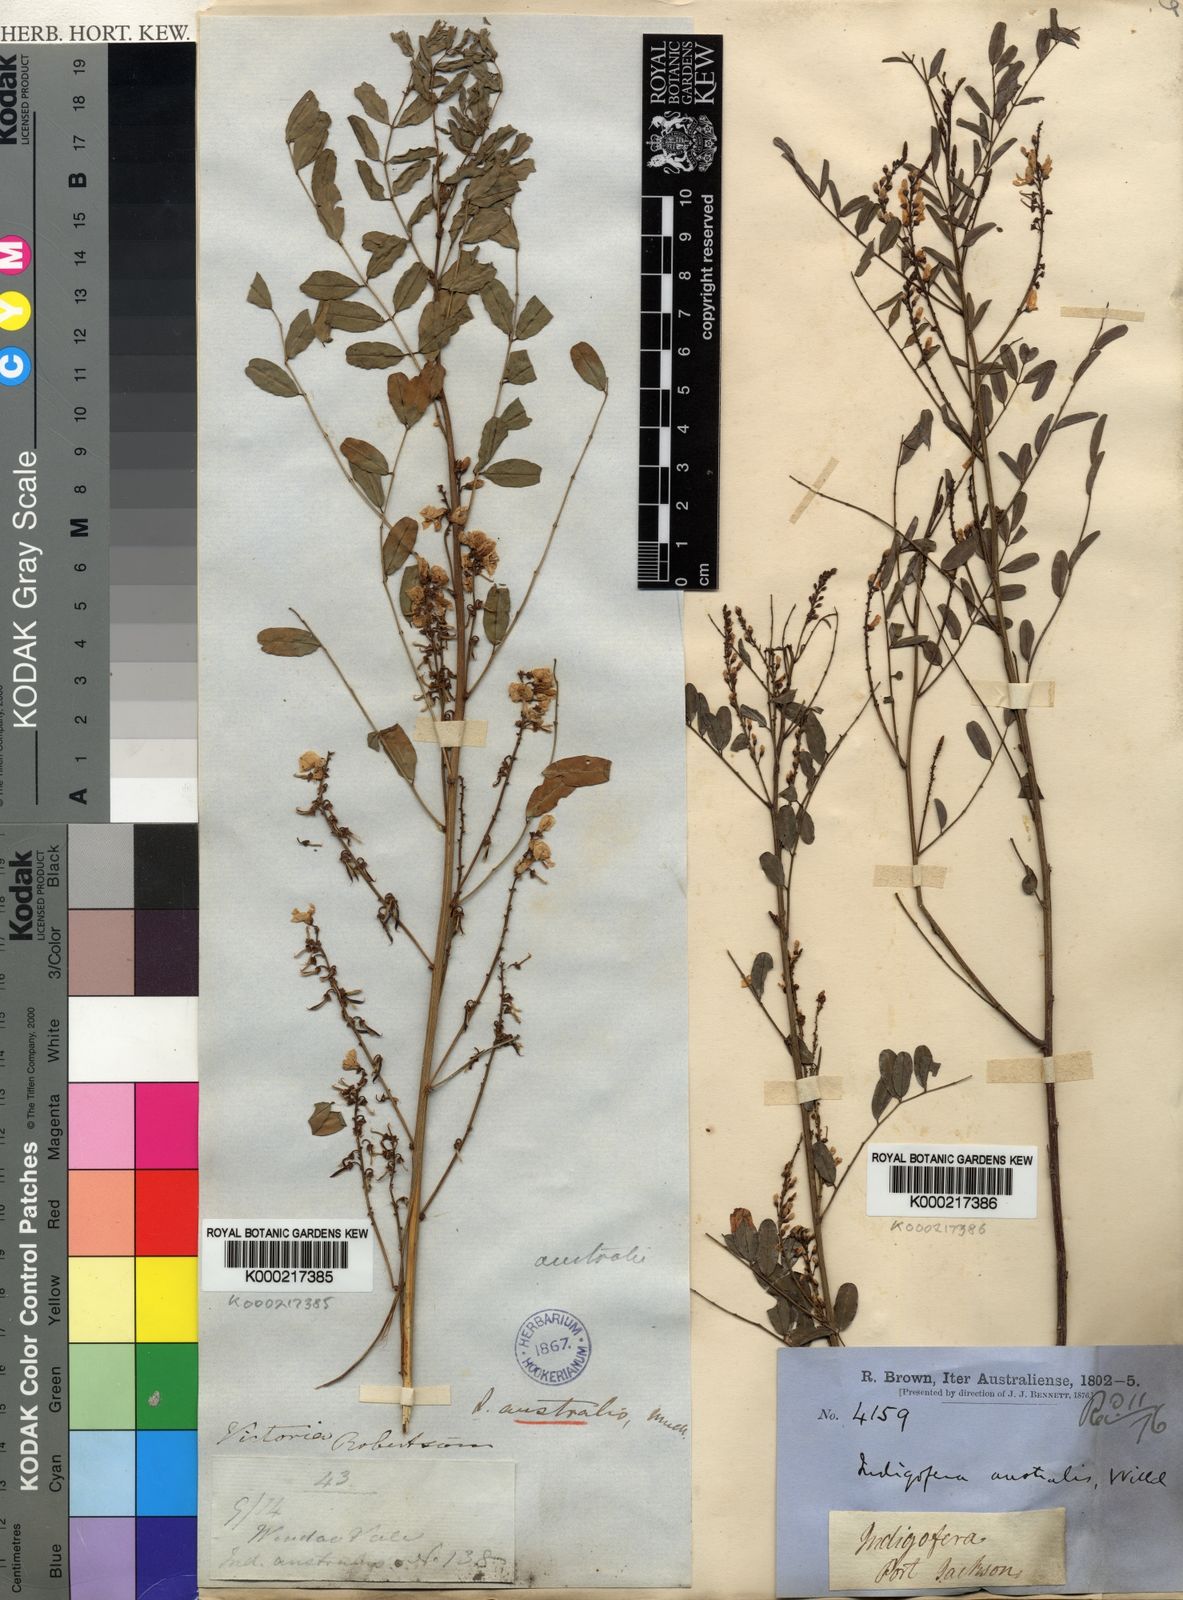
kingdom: Plantae
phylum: Tracheophyta
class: Magnoliopsida
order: Fabales
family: Fabaceae
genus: Indigofera
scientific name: Indigofera australis
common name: Australian indigo
